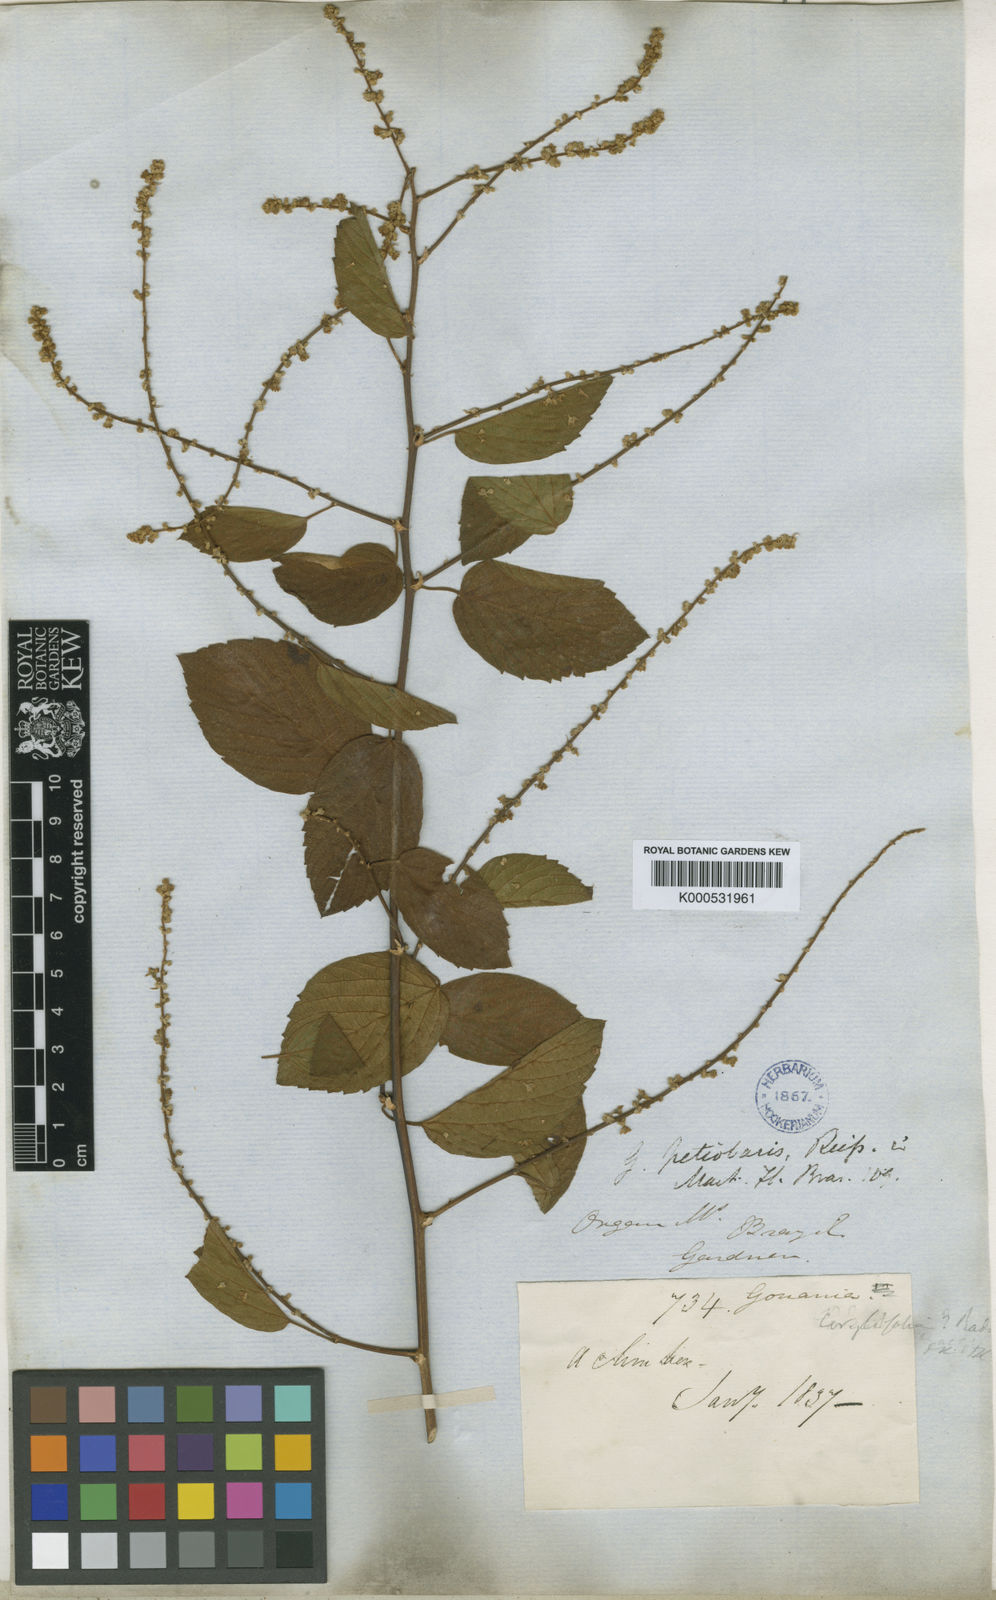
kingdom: Plantae
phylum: Tracheophyta
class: Magnoliopsida
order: Rosales
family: Rhamnaceae
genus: Gouania
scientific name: Gouania corylifolia
